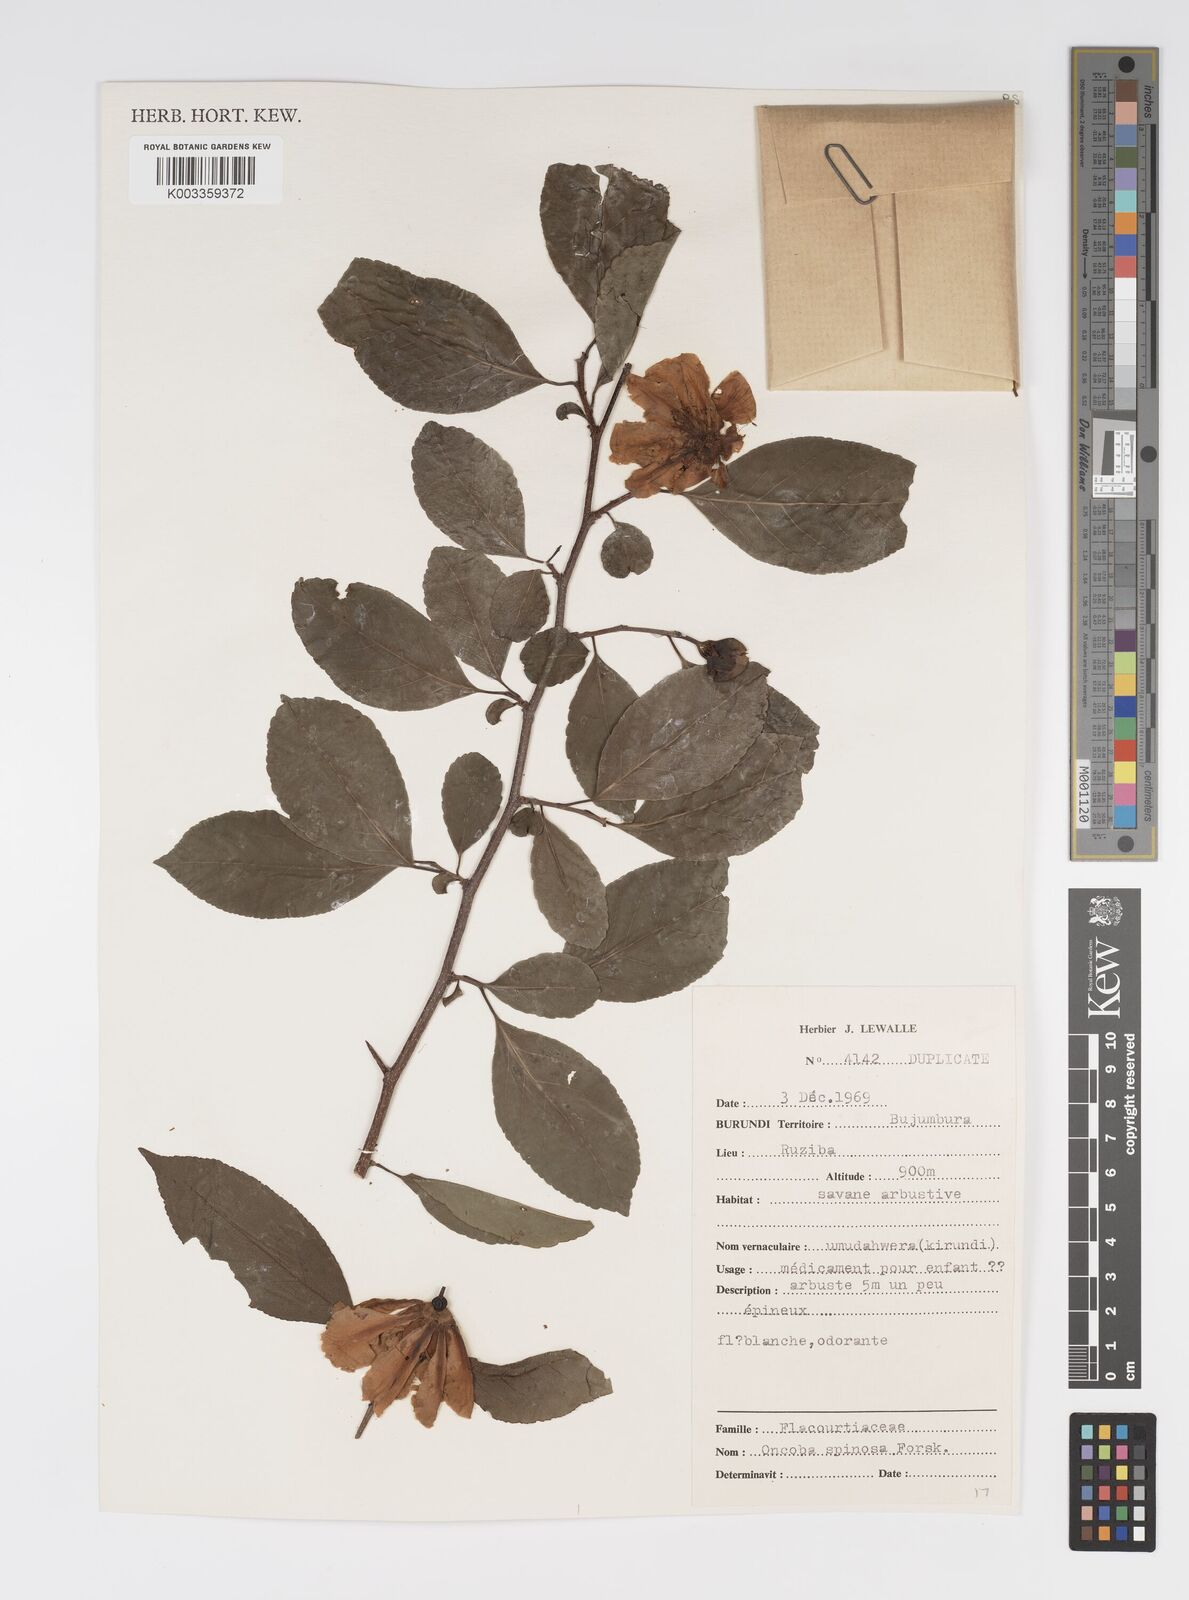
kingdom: Plantae
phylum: Tracheophyta
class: Magnoliopsida
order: Malpighiales
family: Salicaceae
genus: Oncoba
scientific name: Oncoba spinosa
